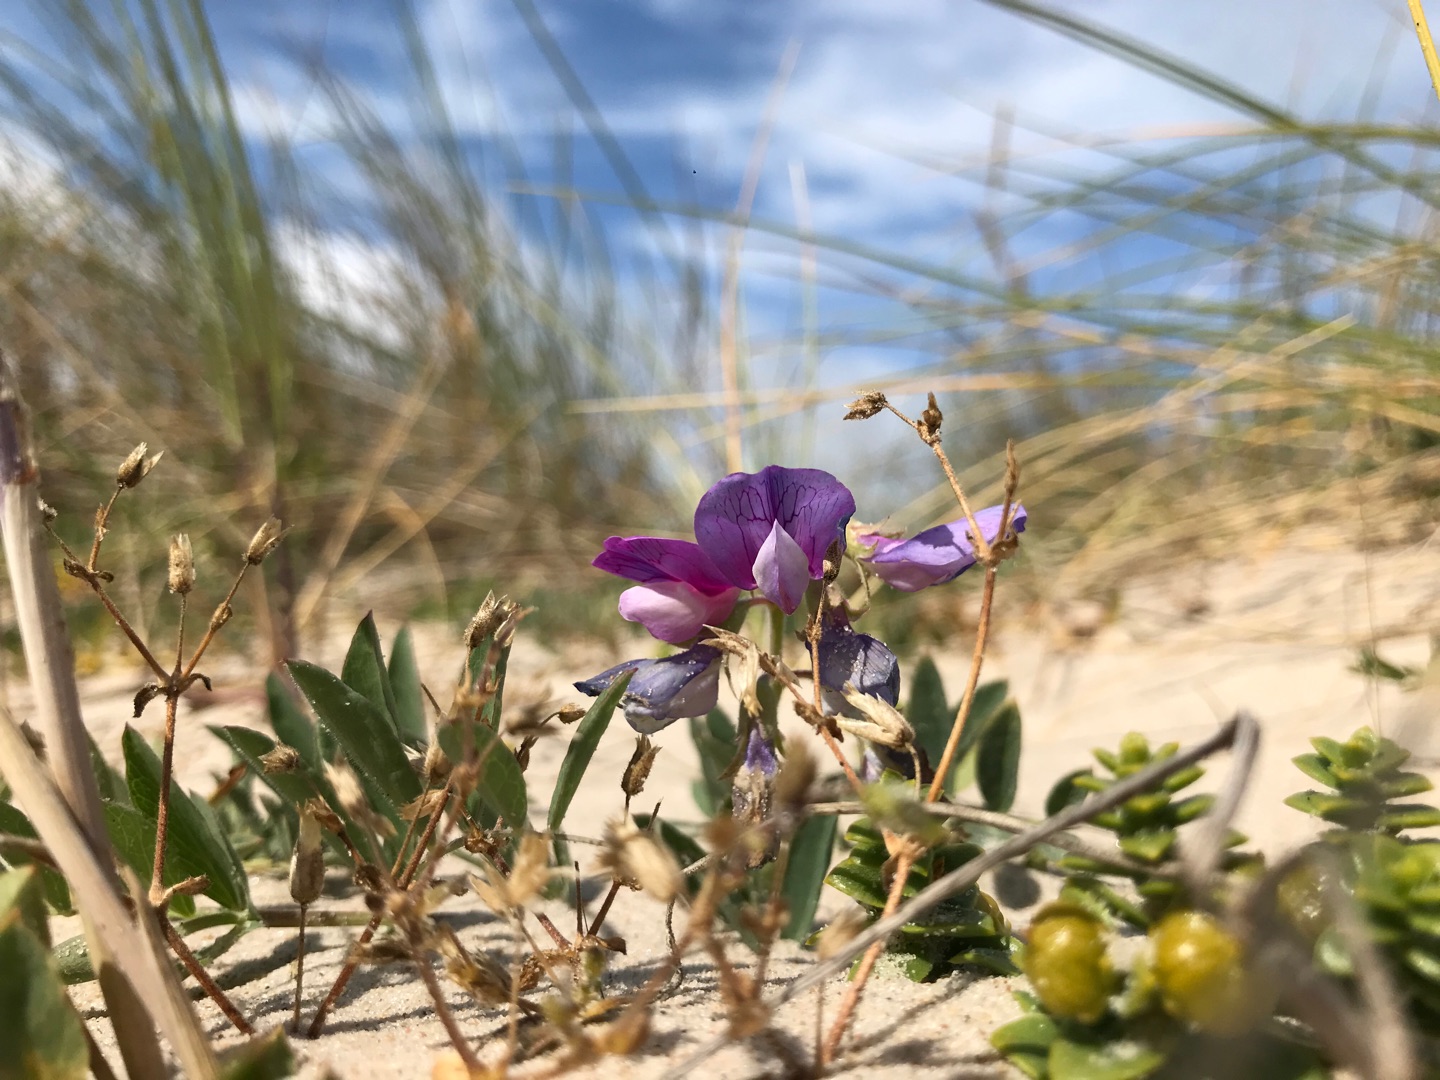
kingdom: Plantae
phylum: Tracheophyta
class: Magnoliopsida
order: Fabales
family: Fabaceae
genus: Lathyrus
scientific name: Lathyrus japonicus
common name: Strand-fladbælg
